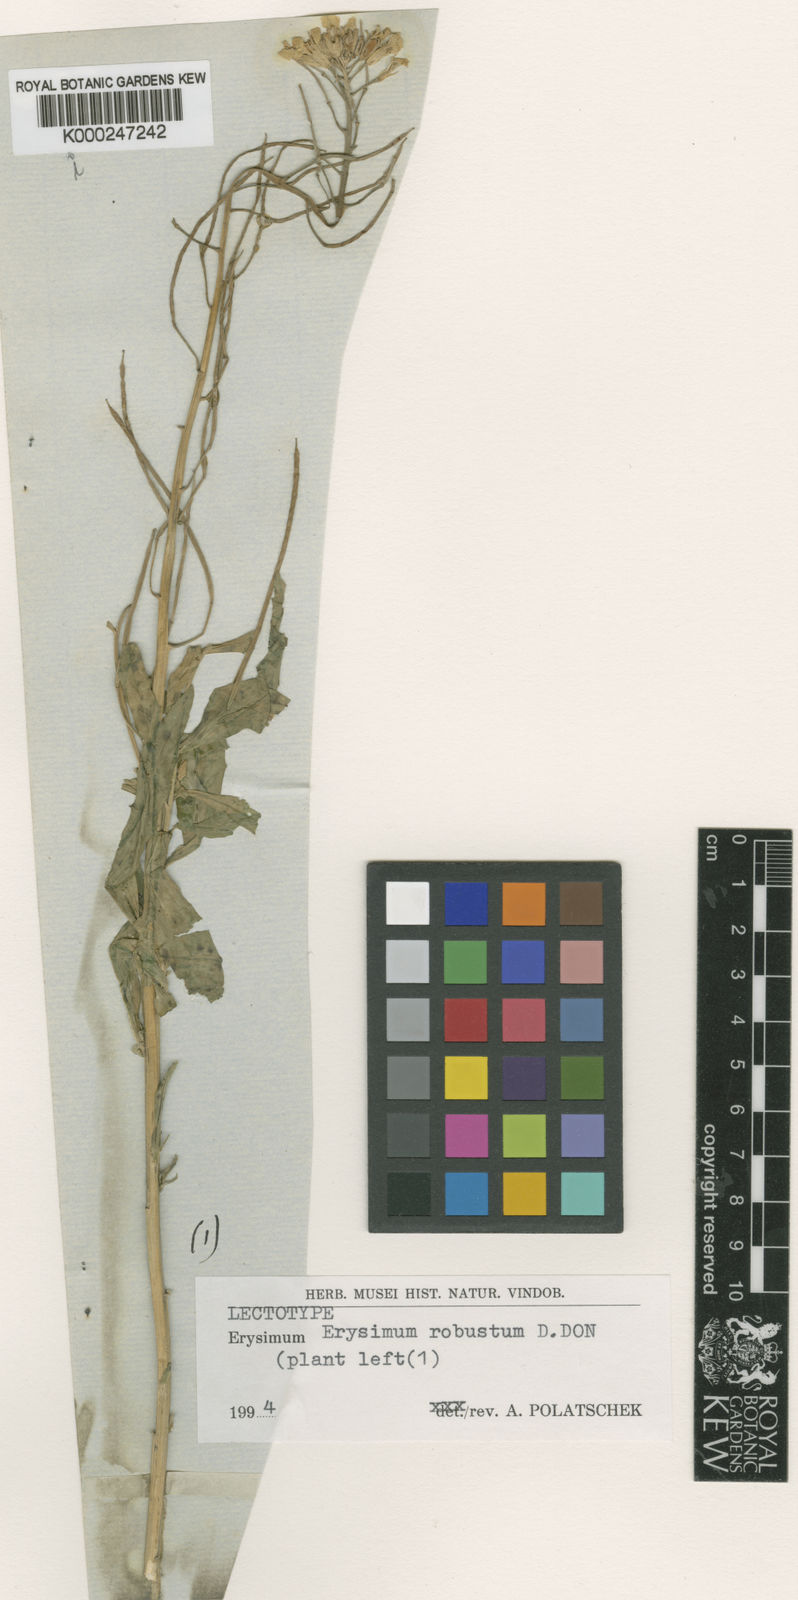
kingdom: Plantae
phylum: Tracheophyta
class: Magnoliopsida
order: Brassicales
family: Brassicaceae
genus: Erysimum
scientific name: Erysimum hieraciifolium
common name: European wallflower
